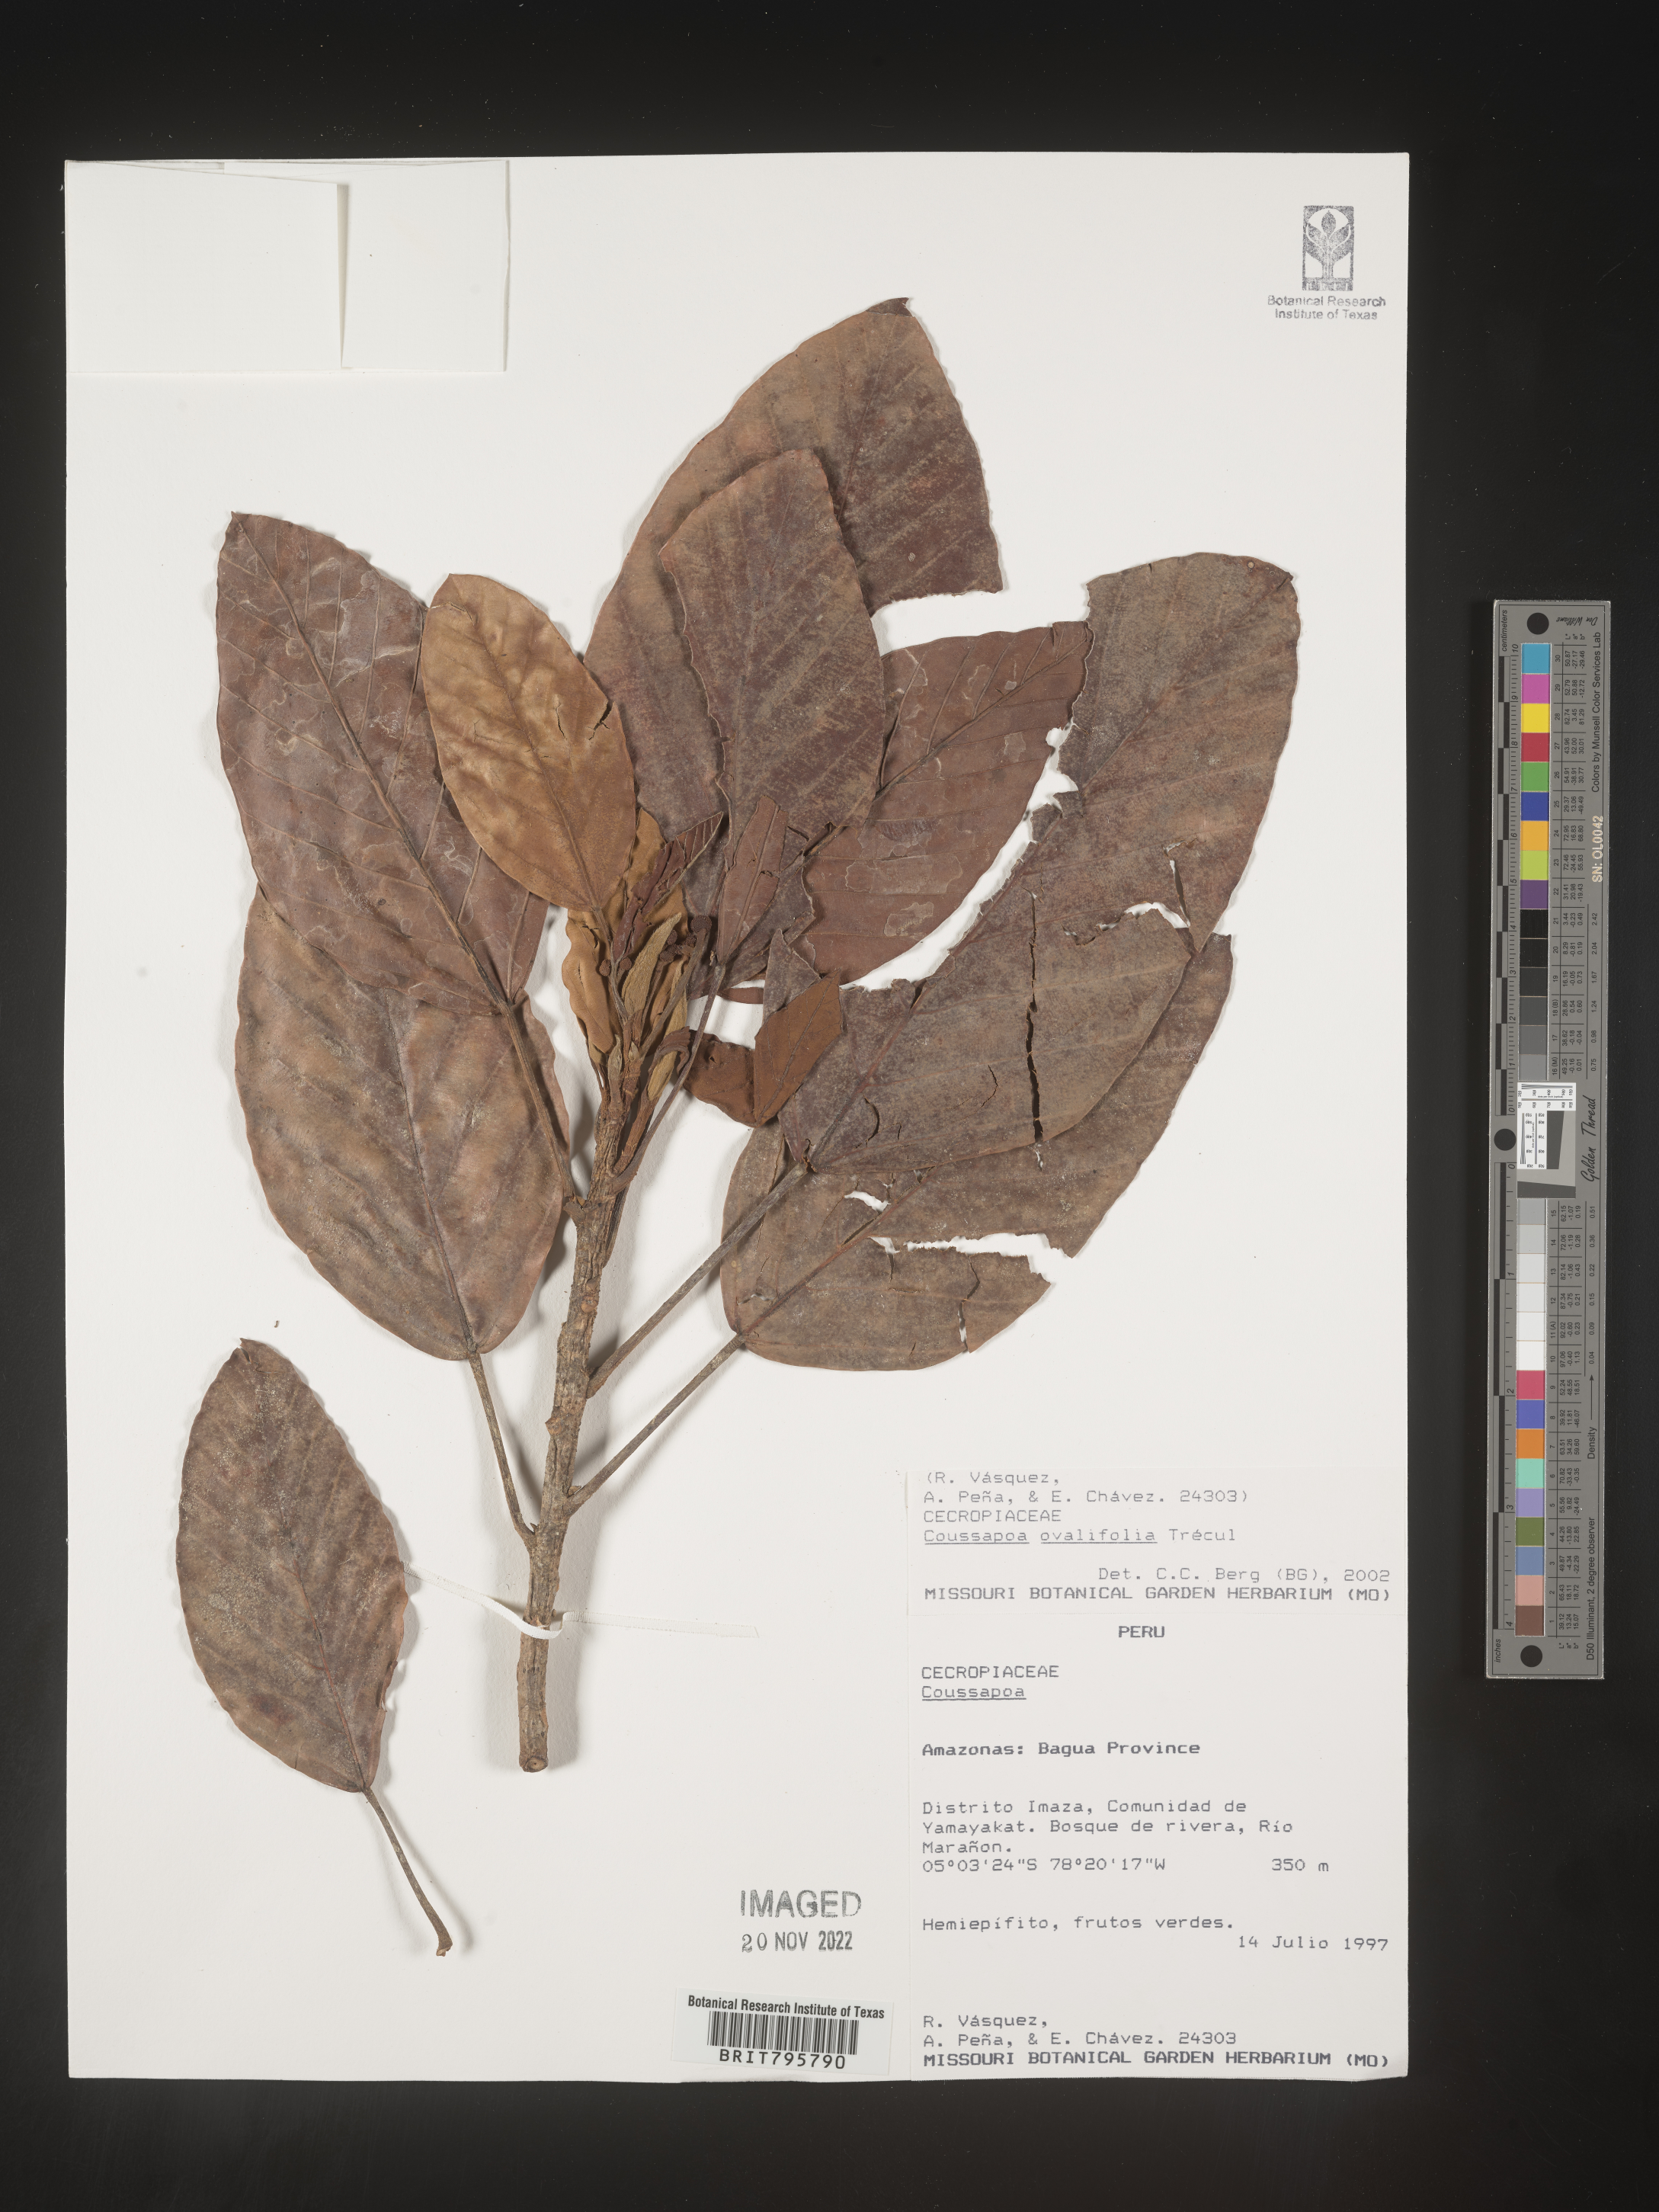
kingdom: Plantae
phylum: Tracheophyta
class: Magnoliopsida
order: Rosales
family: Urticaceae
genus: Coussapoa
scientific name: Coussapoa
